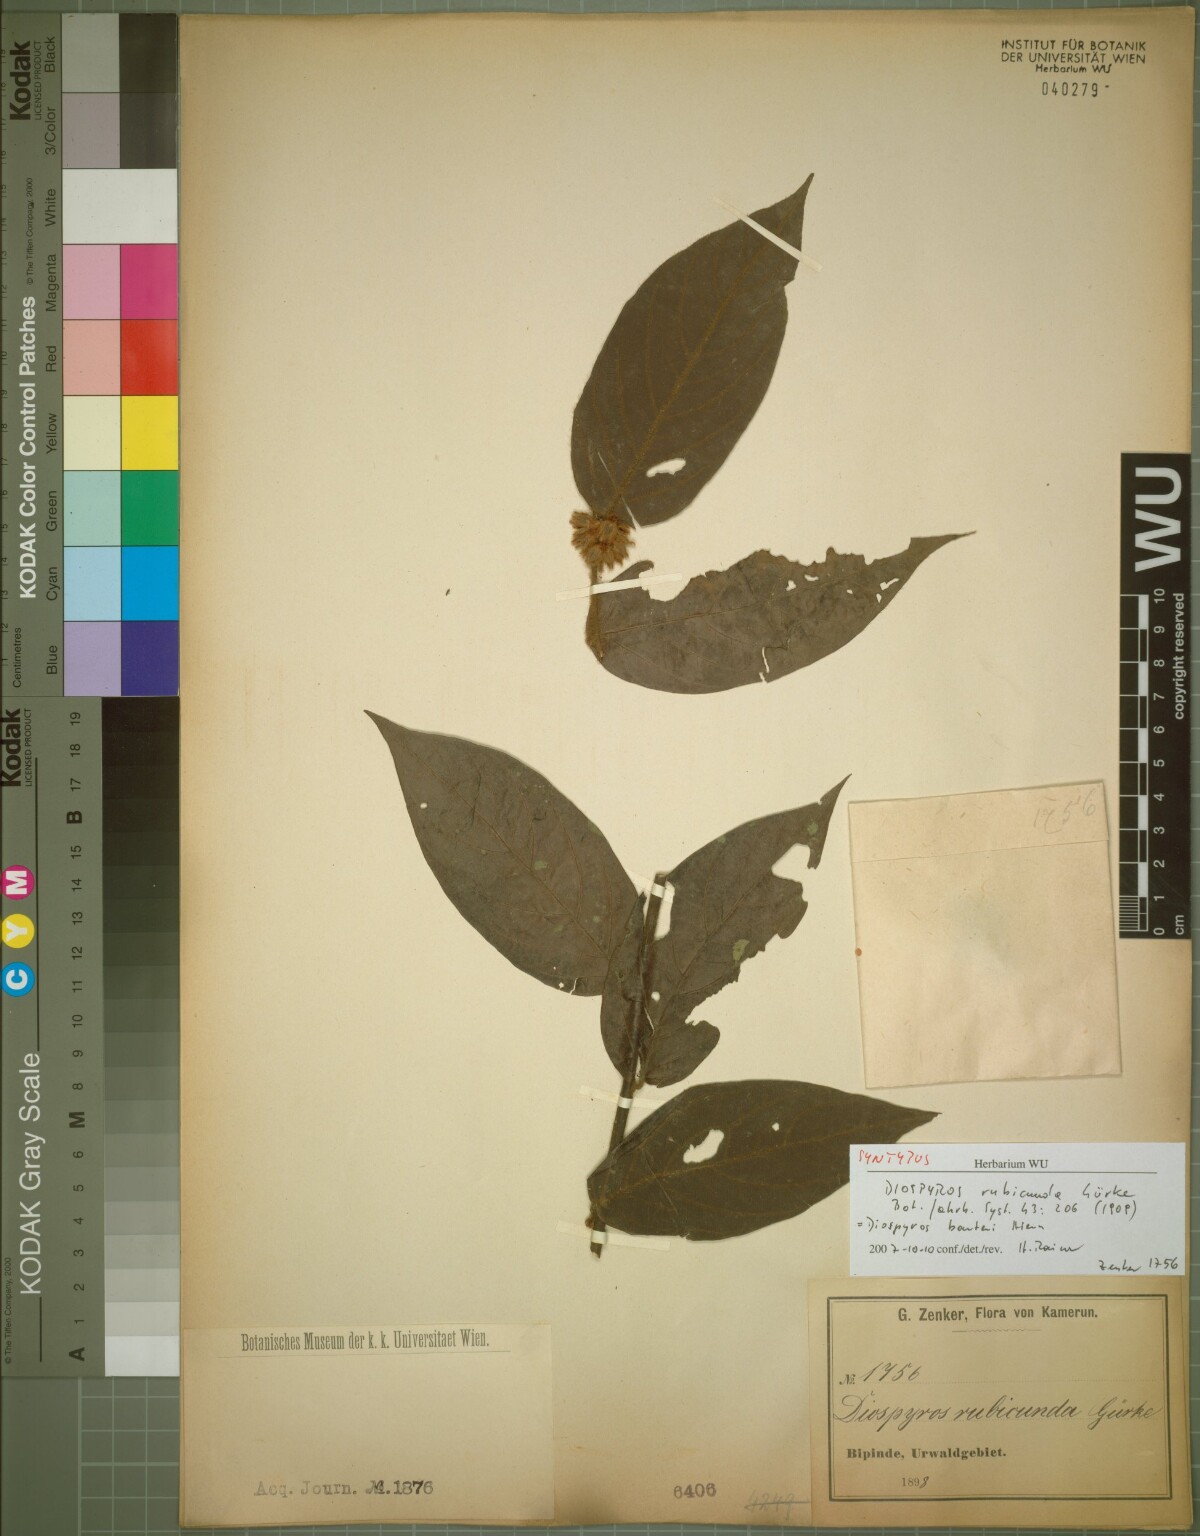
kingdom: Plantae
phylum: Tracheophyta
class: Magnoliopsida
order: Ericales
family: Ebenaceae
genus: Diospyros
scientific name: Diospyros rubicunda
